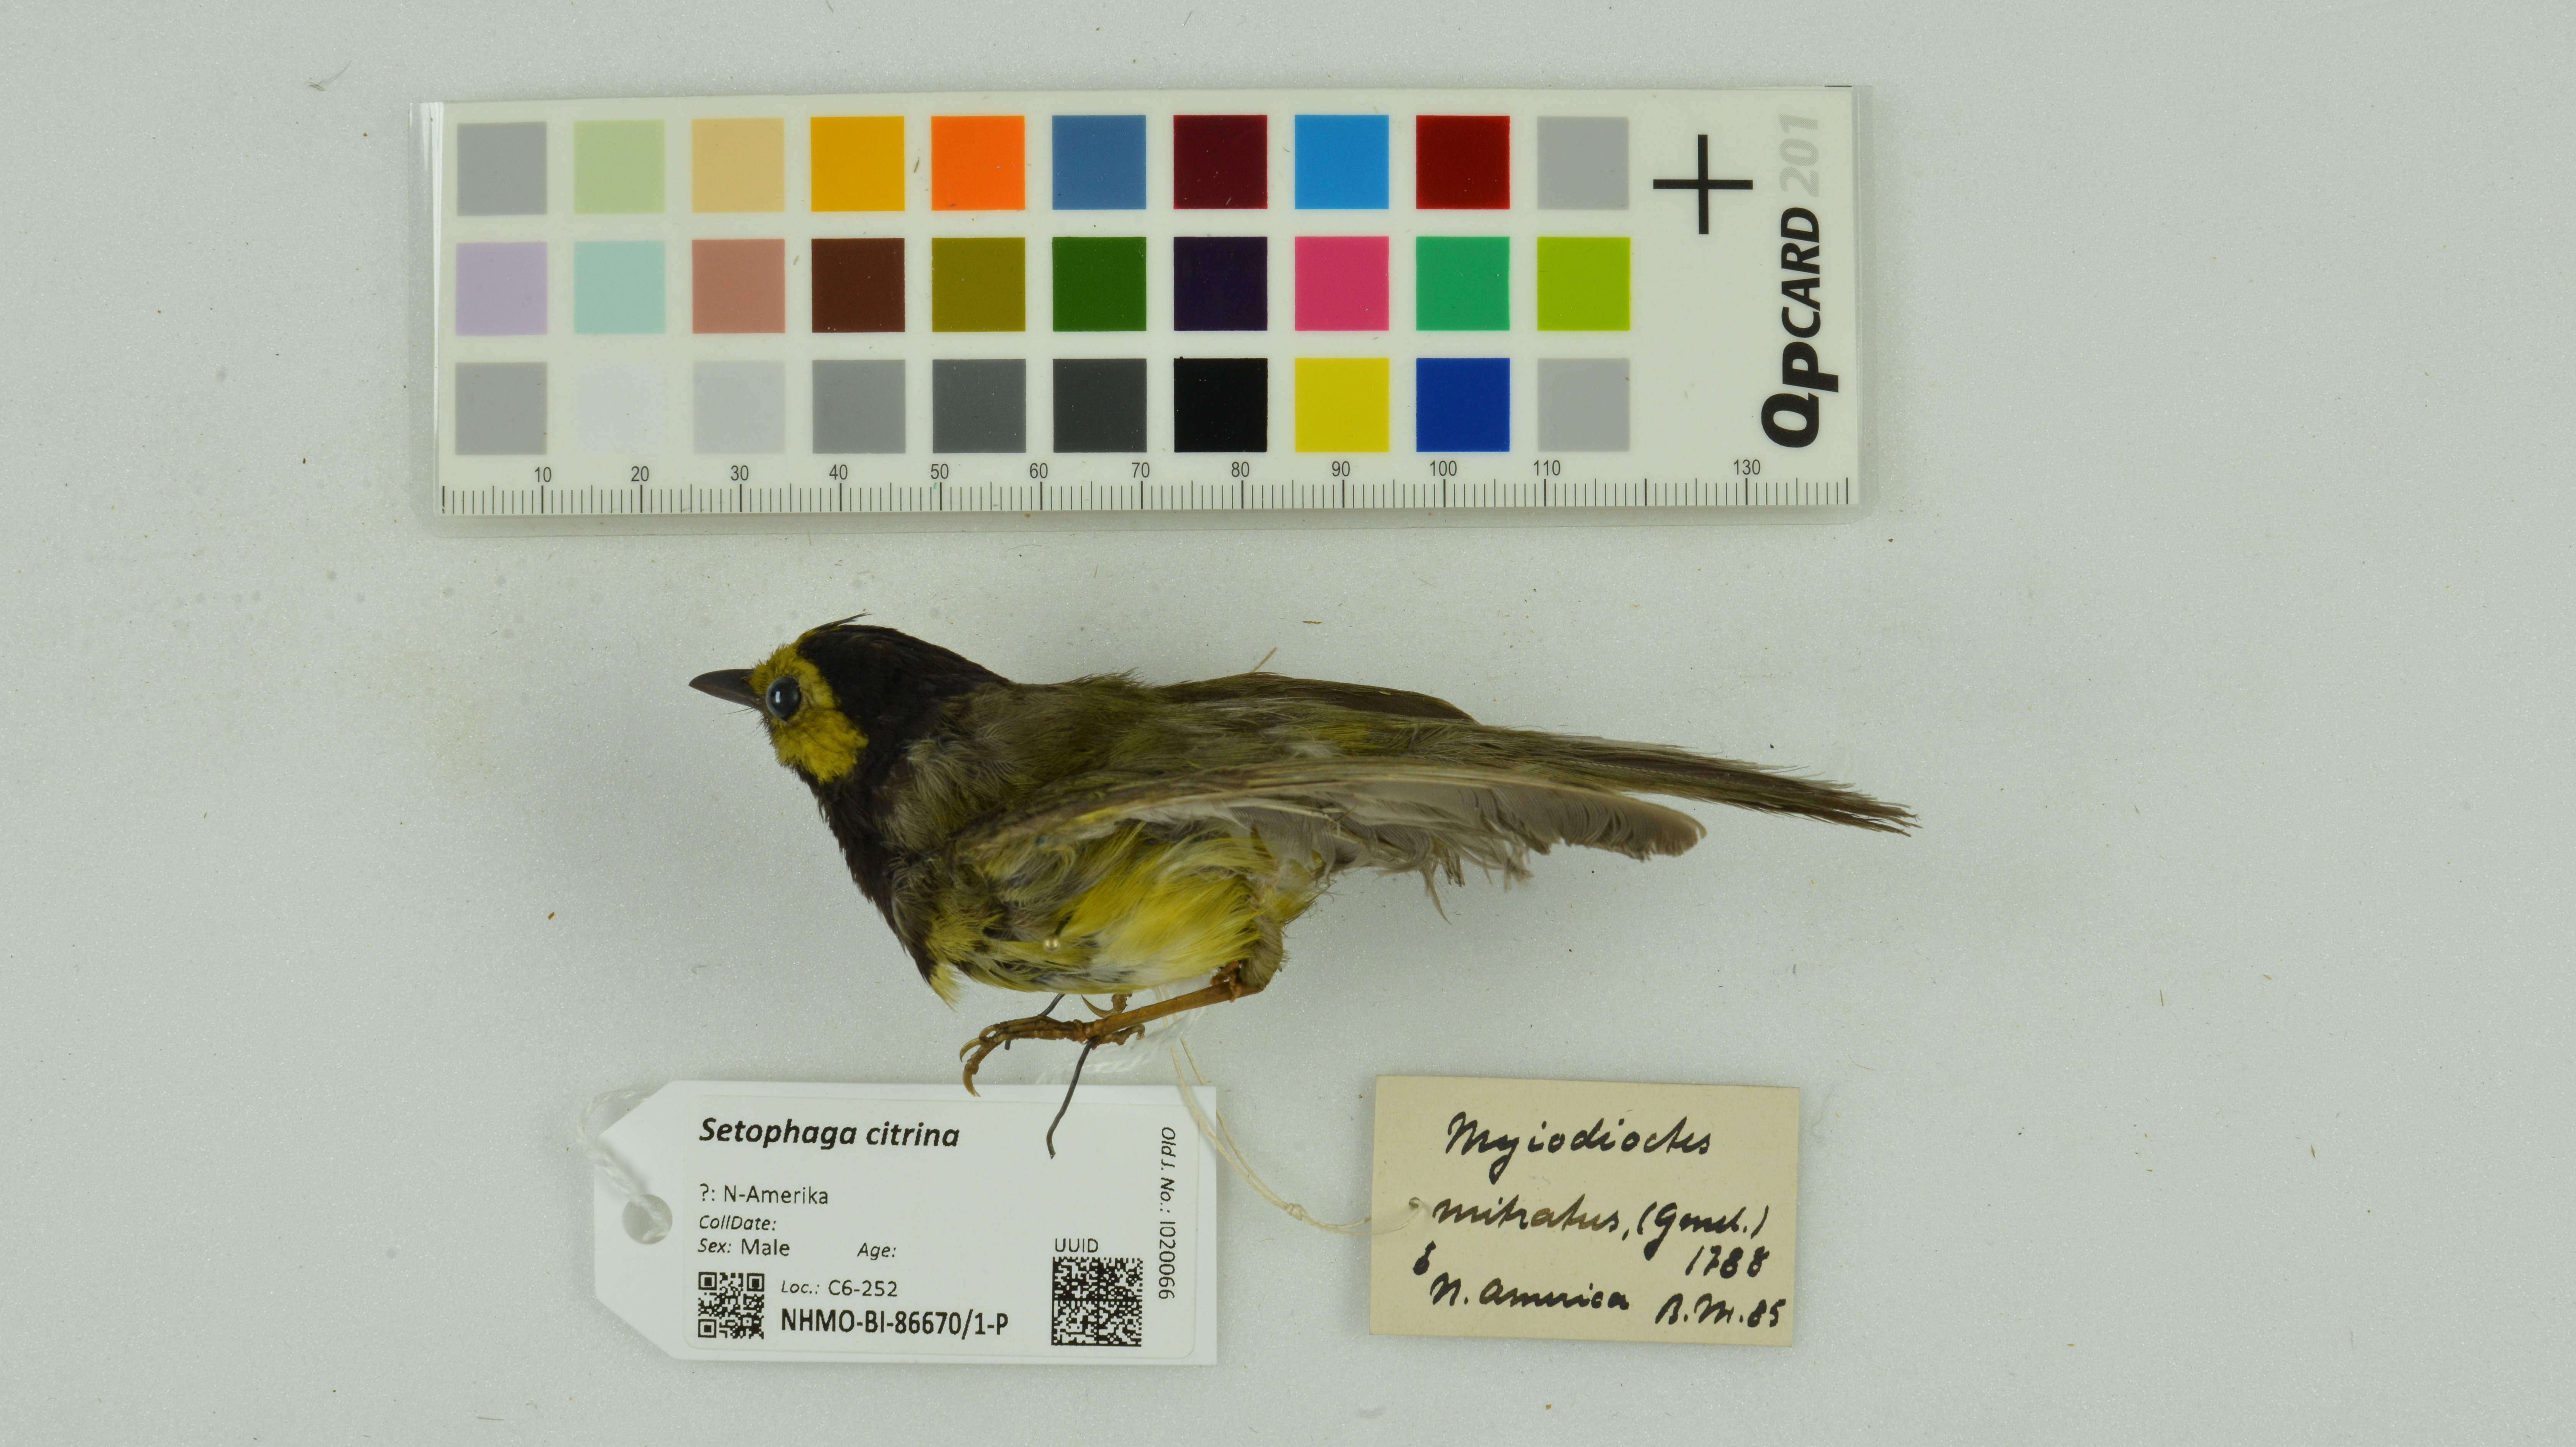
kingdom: Animalia
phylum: Chordata
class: Aves
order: Passeriformes
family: Parulidae
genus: Setophaga
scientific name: Setophaga citrina
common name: Hooded warbler
